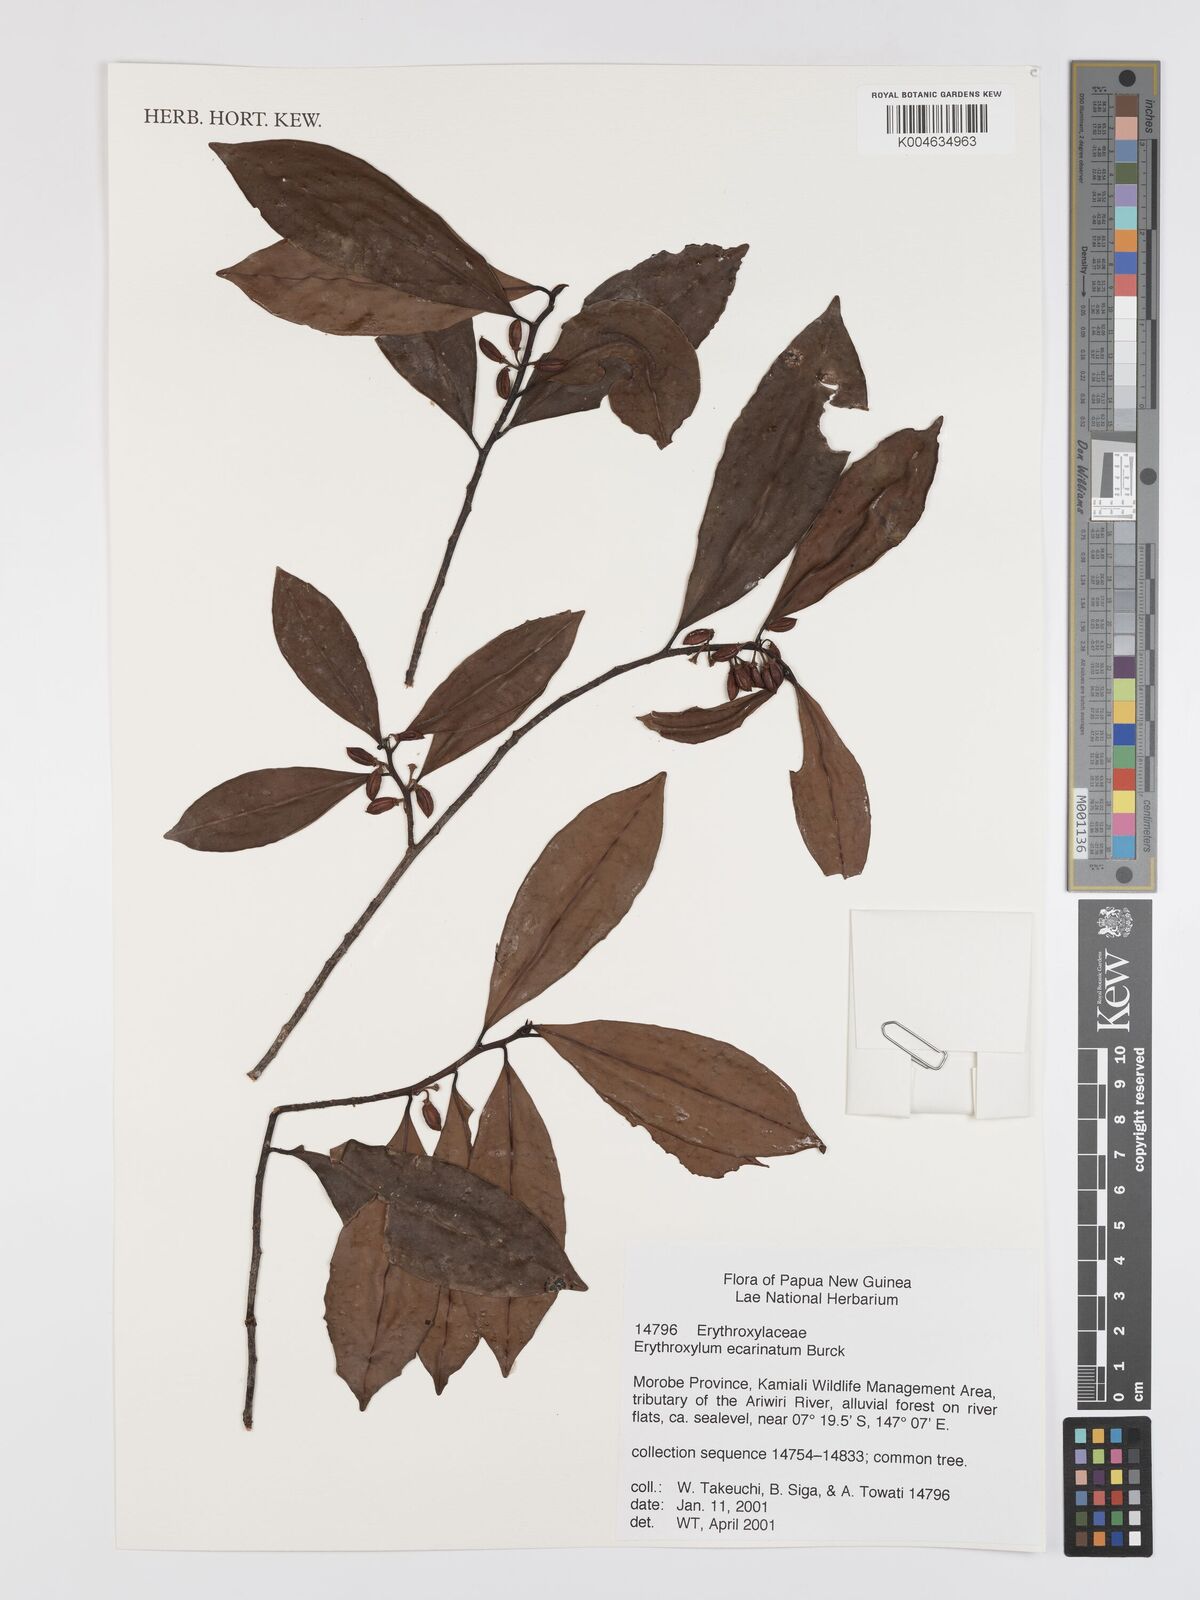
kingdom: Plantae
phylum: Tracheophyta
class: Magnoliopsida
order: Malpighiales
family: Erythroxylaceae
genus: Erythroxylum
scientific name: Erythroxylum ecarinatum
